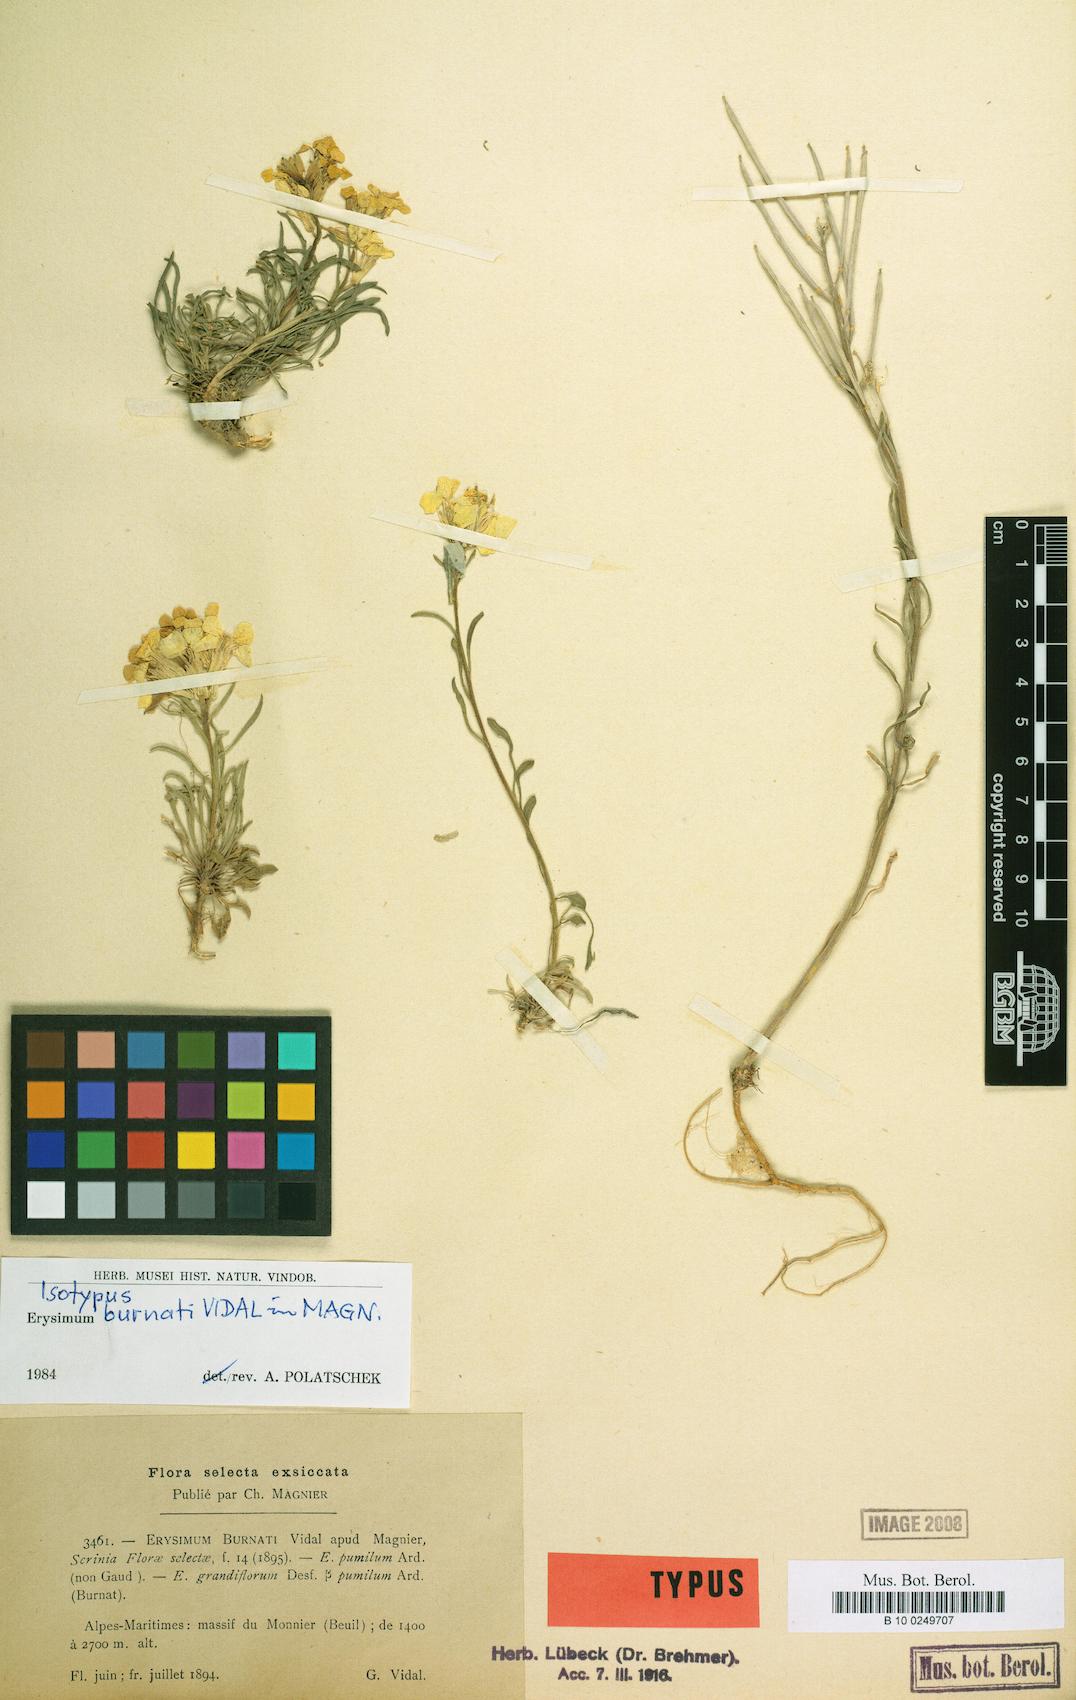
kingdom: Plantae
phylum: Tracheophyta
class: Magnoliopsida
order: Brassicales
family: Brassicaceae
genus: Erysimum
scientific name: Erysimum burnatii
